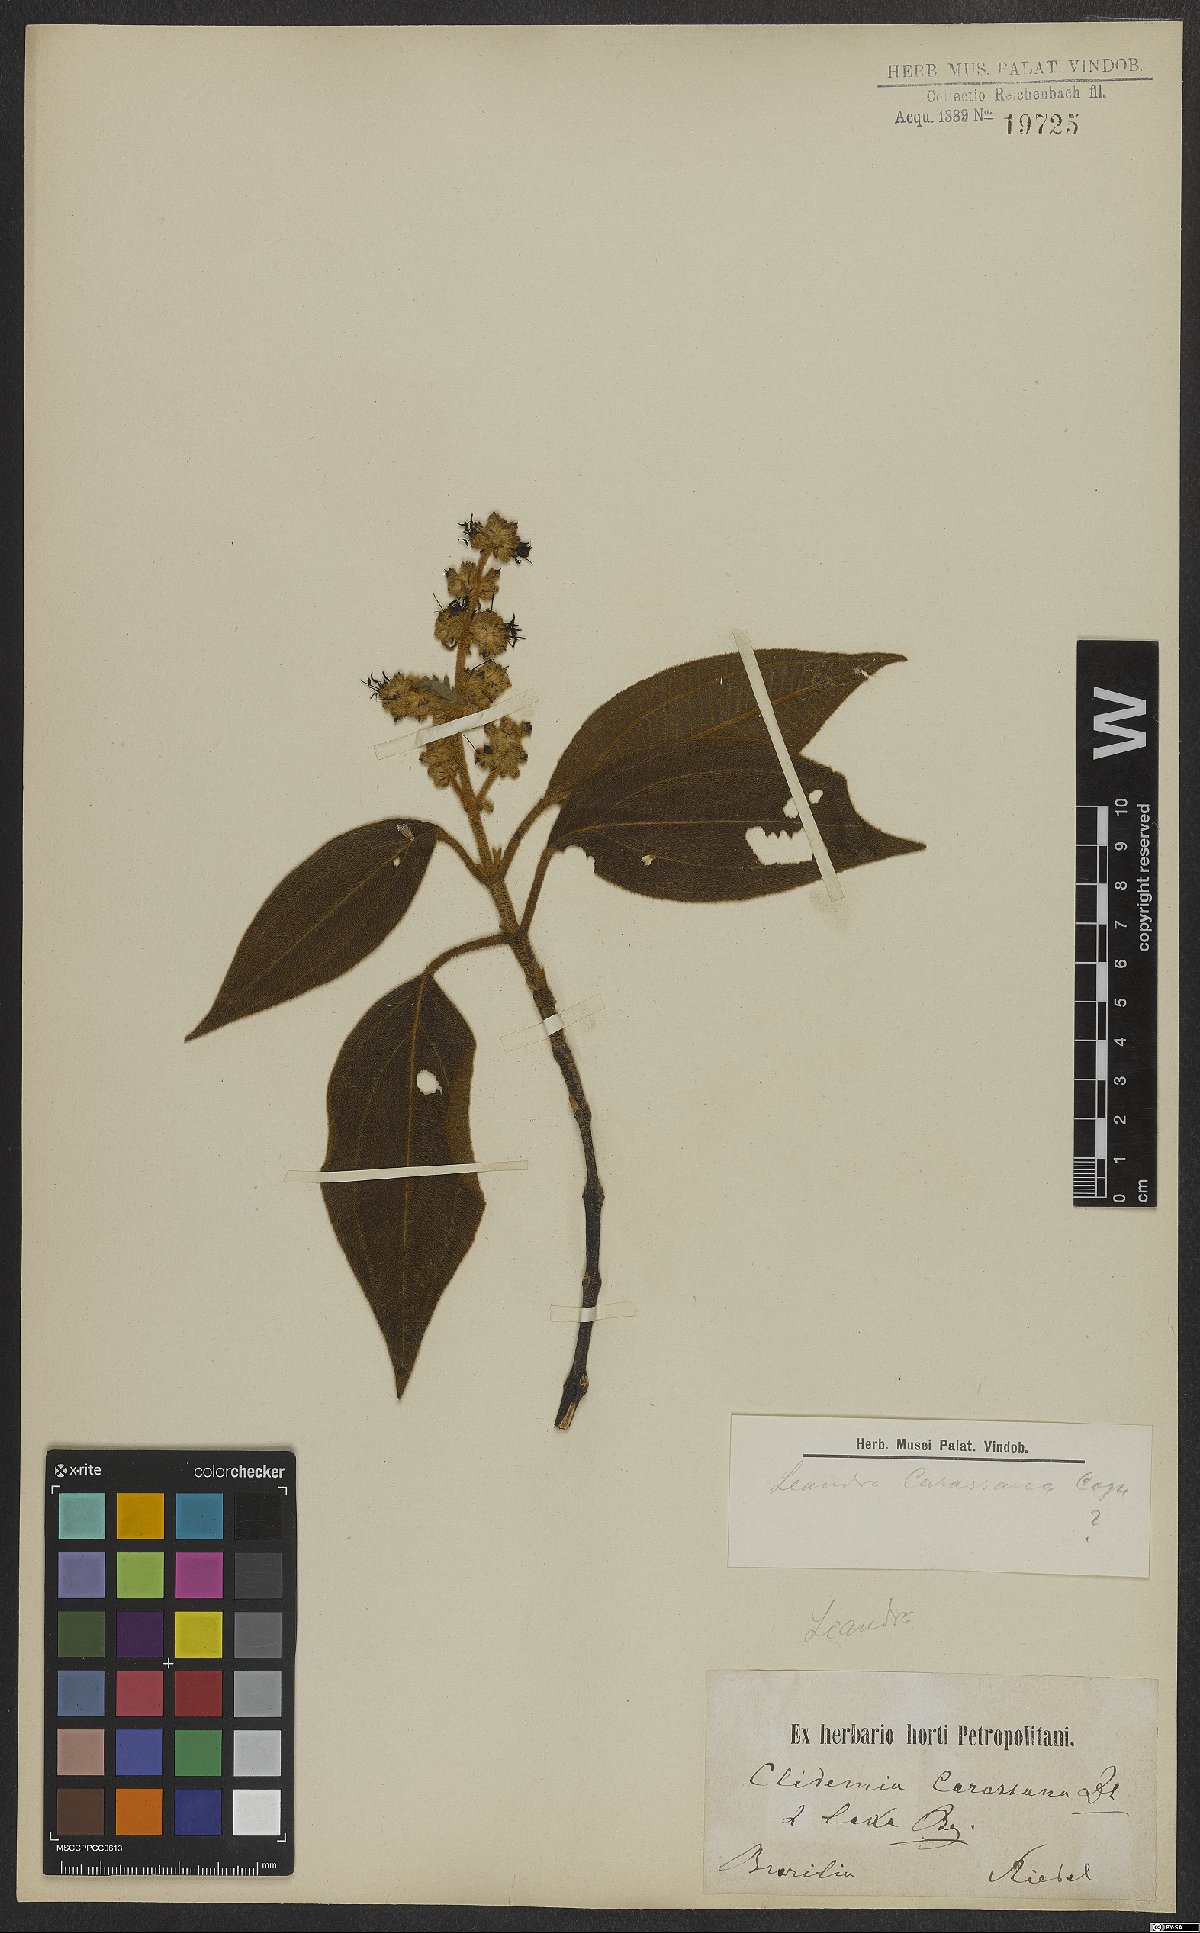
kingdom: Plantae
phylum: Tracheophyta
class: Magnoliopsida
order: Myrtales
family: Melastomataceae
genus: Miconia
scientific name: Miconia sublanata
